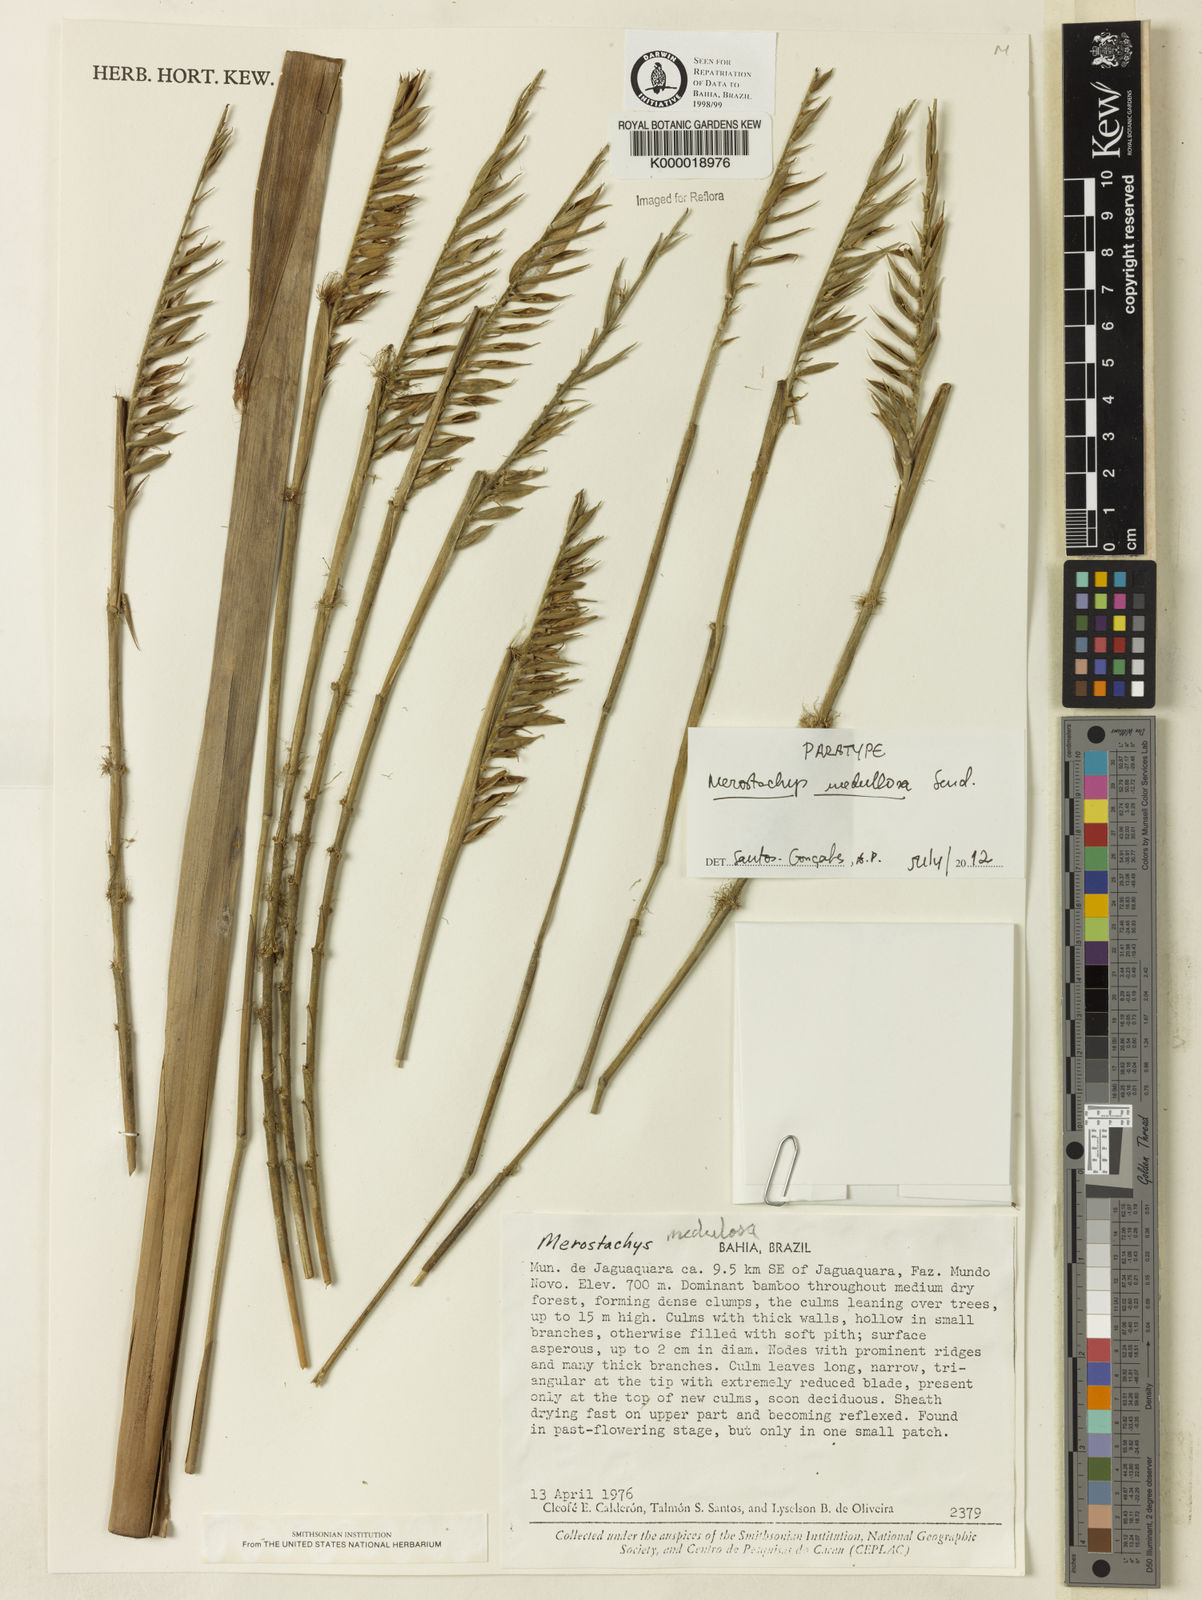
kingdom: Plantae
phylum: Tracheophyta
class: Liliopsida
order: Poales
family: Poaceae
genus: Merostachys
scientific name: Merostachys medullosa
